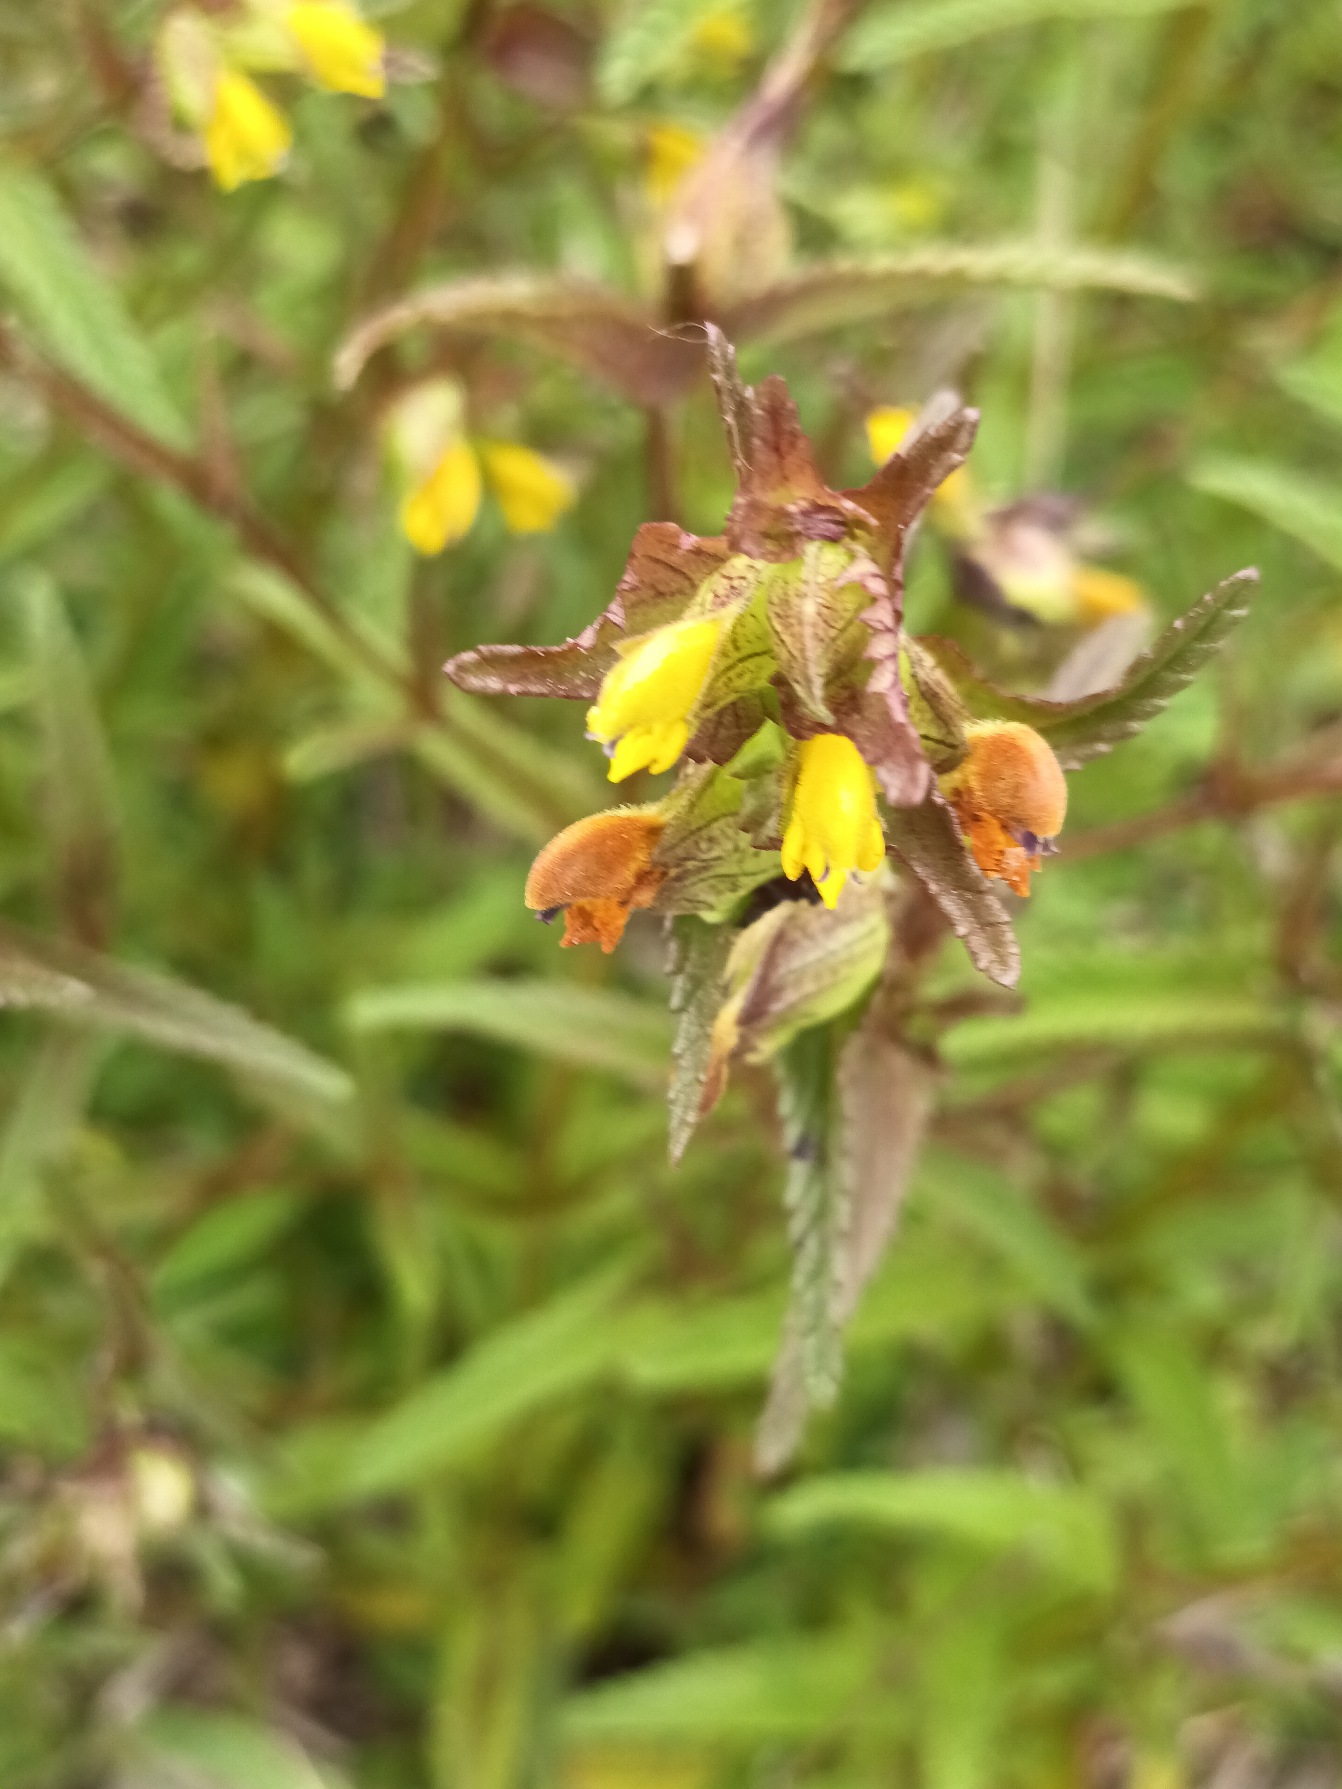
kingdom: Plantae
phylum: Tracheophyta
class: Magnoliopsida
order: Lamiales
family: Orobanchaceae
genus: Rhinanthus
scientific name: Rhinanthus minor
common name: Liden skjaller
